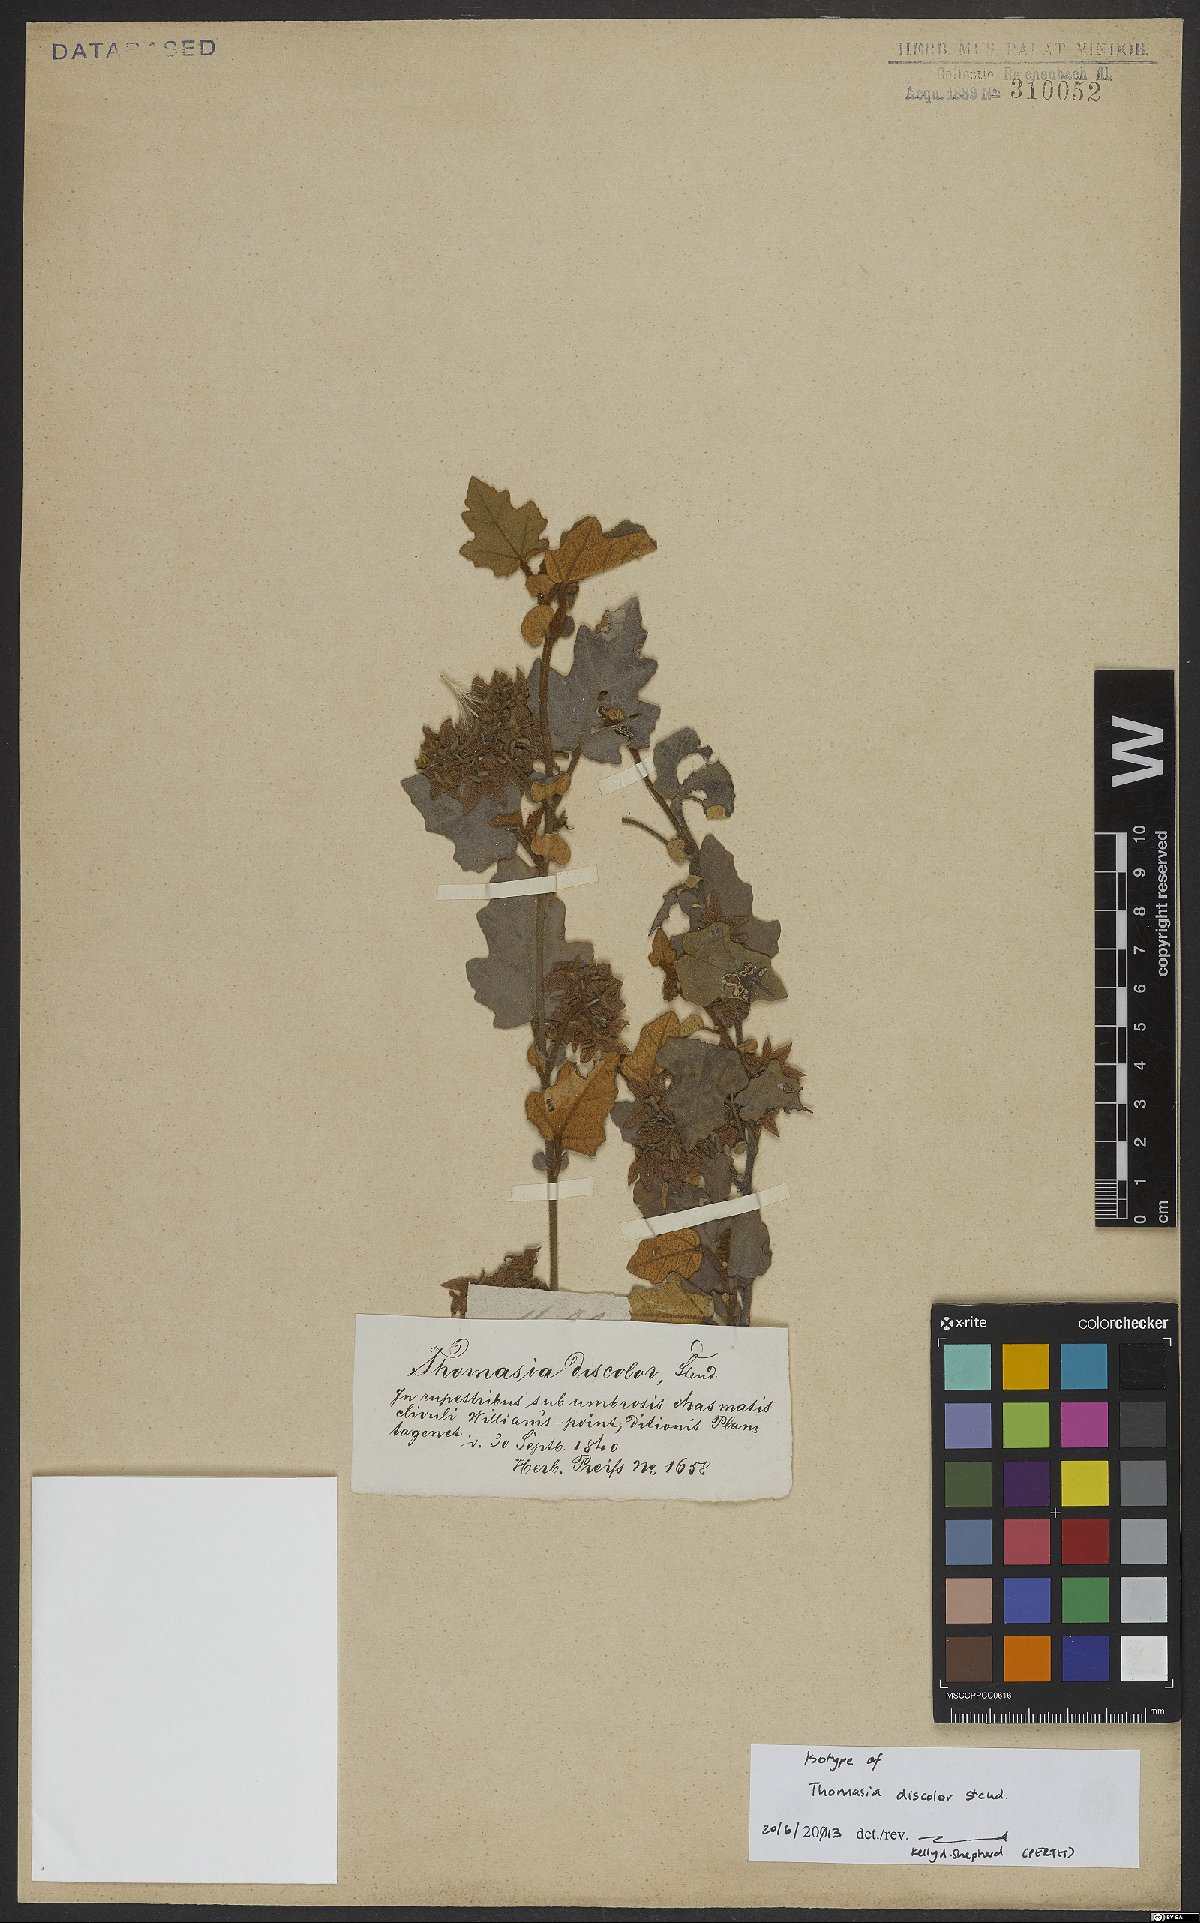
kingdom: Plantae
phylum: Tracheophyta
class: Magnoliopsida
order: Malvales
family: Malvaceae
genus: Thomasia
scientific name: Thomasia discolor
